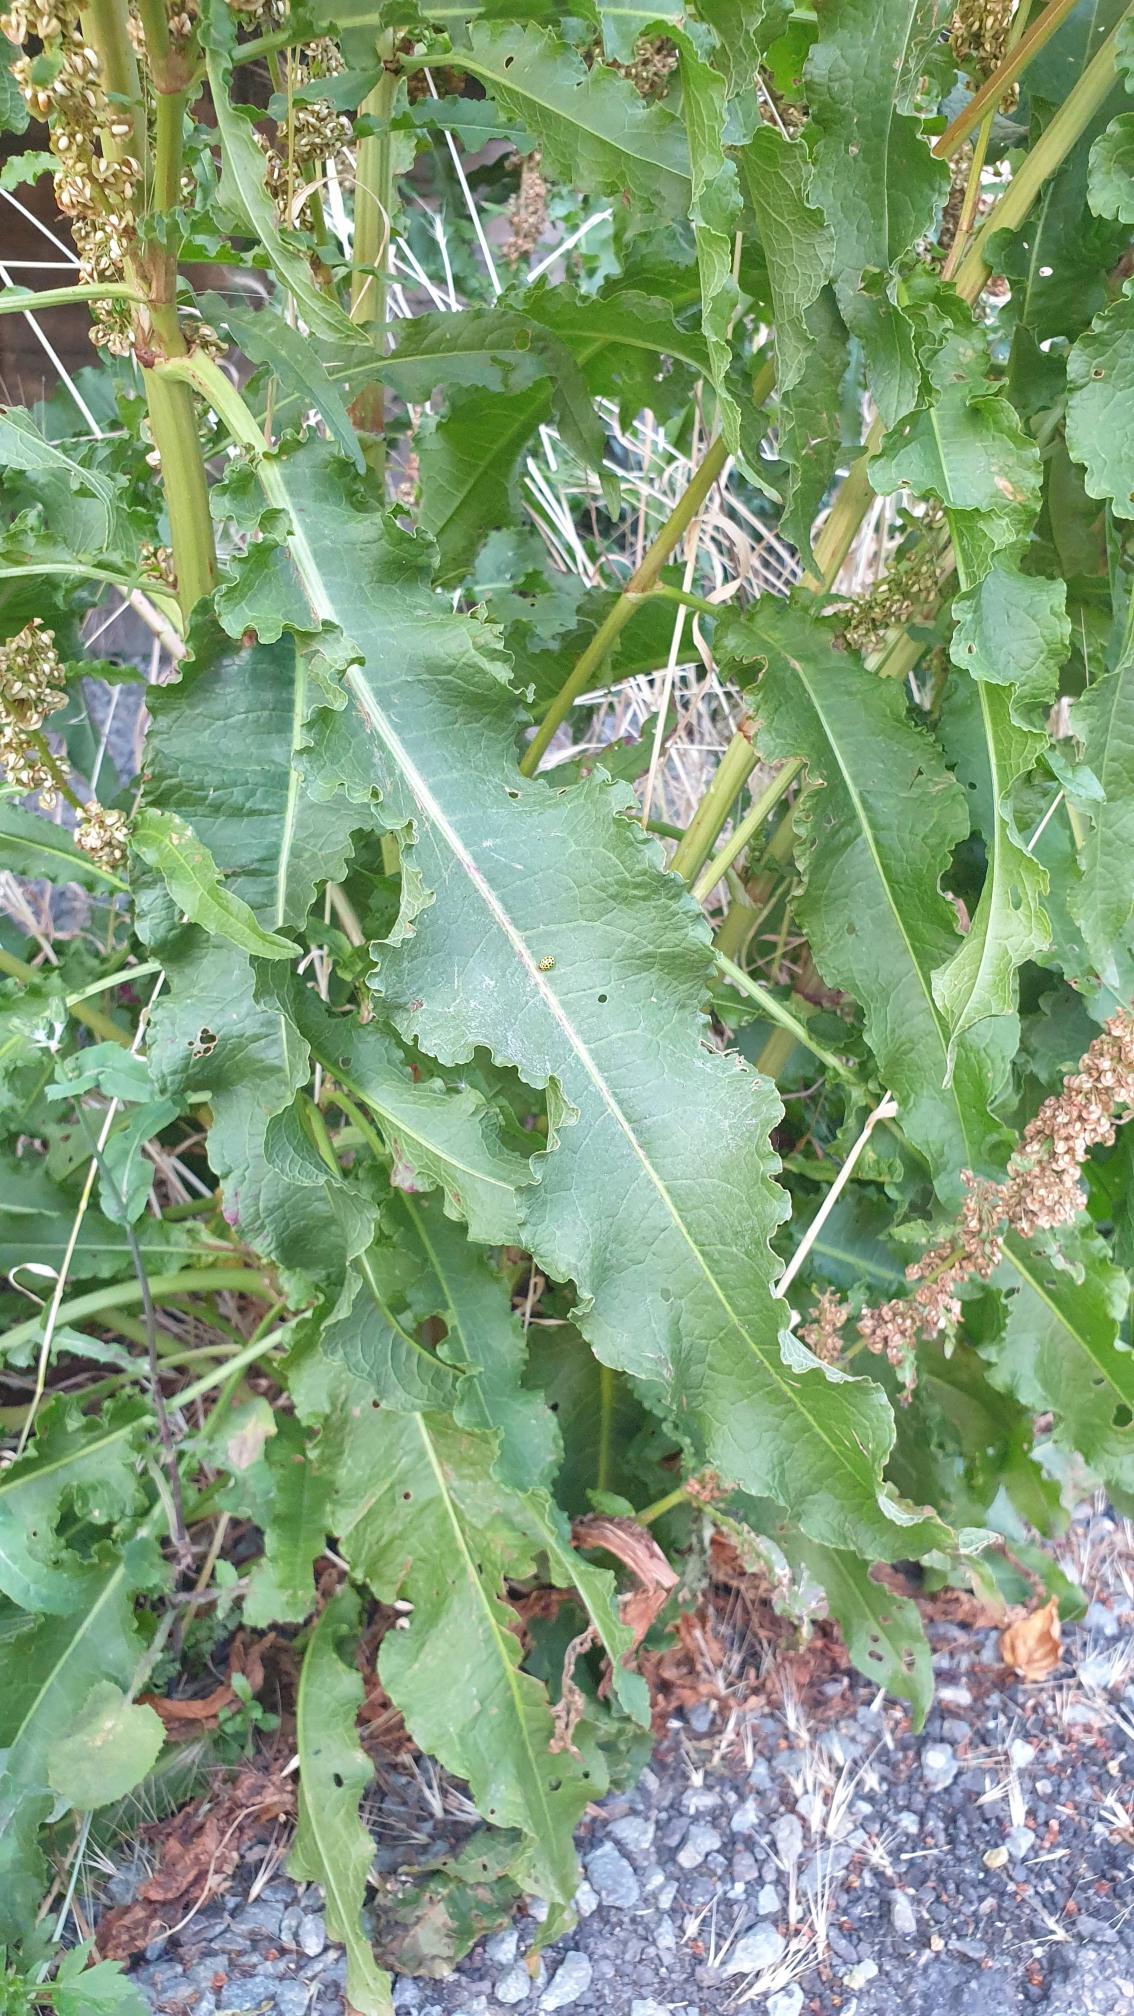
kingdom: Plantae
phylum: Tracheophyta
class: Magnoliopsida
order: Caryophyllales
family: Polygonaceae
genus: Rumex
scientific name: Rumex crispus
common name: Kruset skræppe
